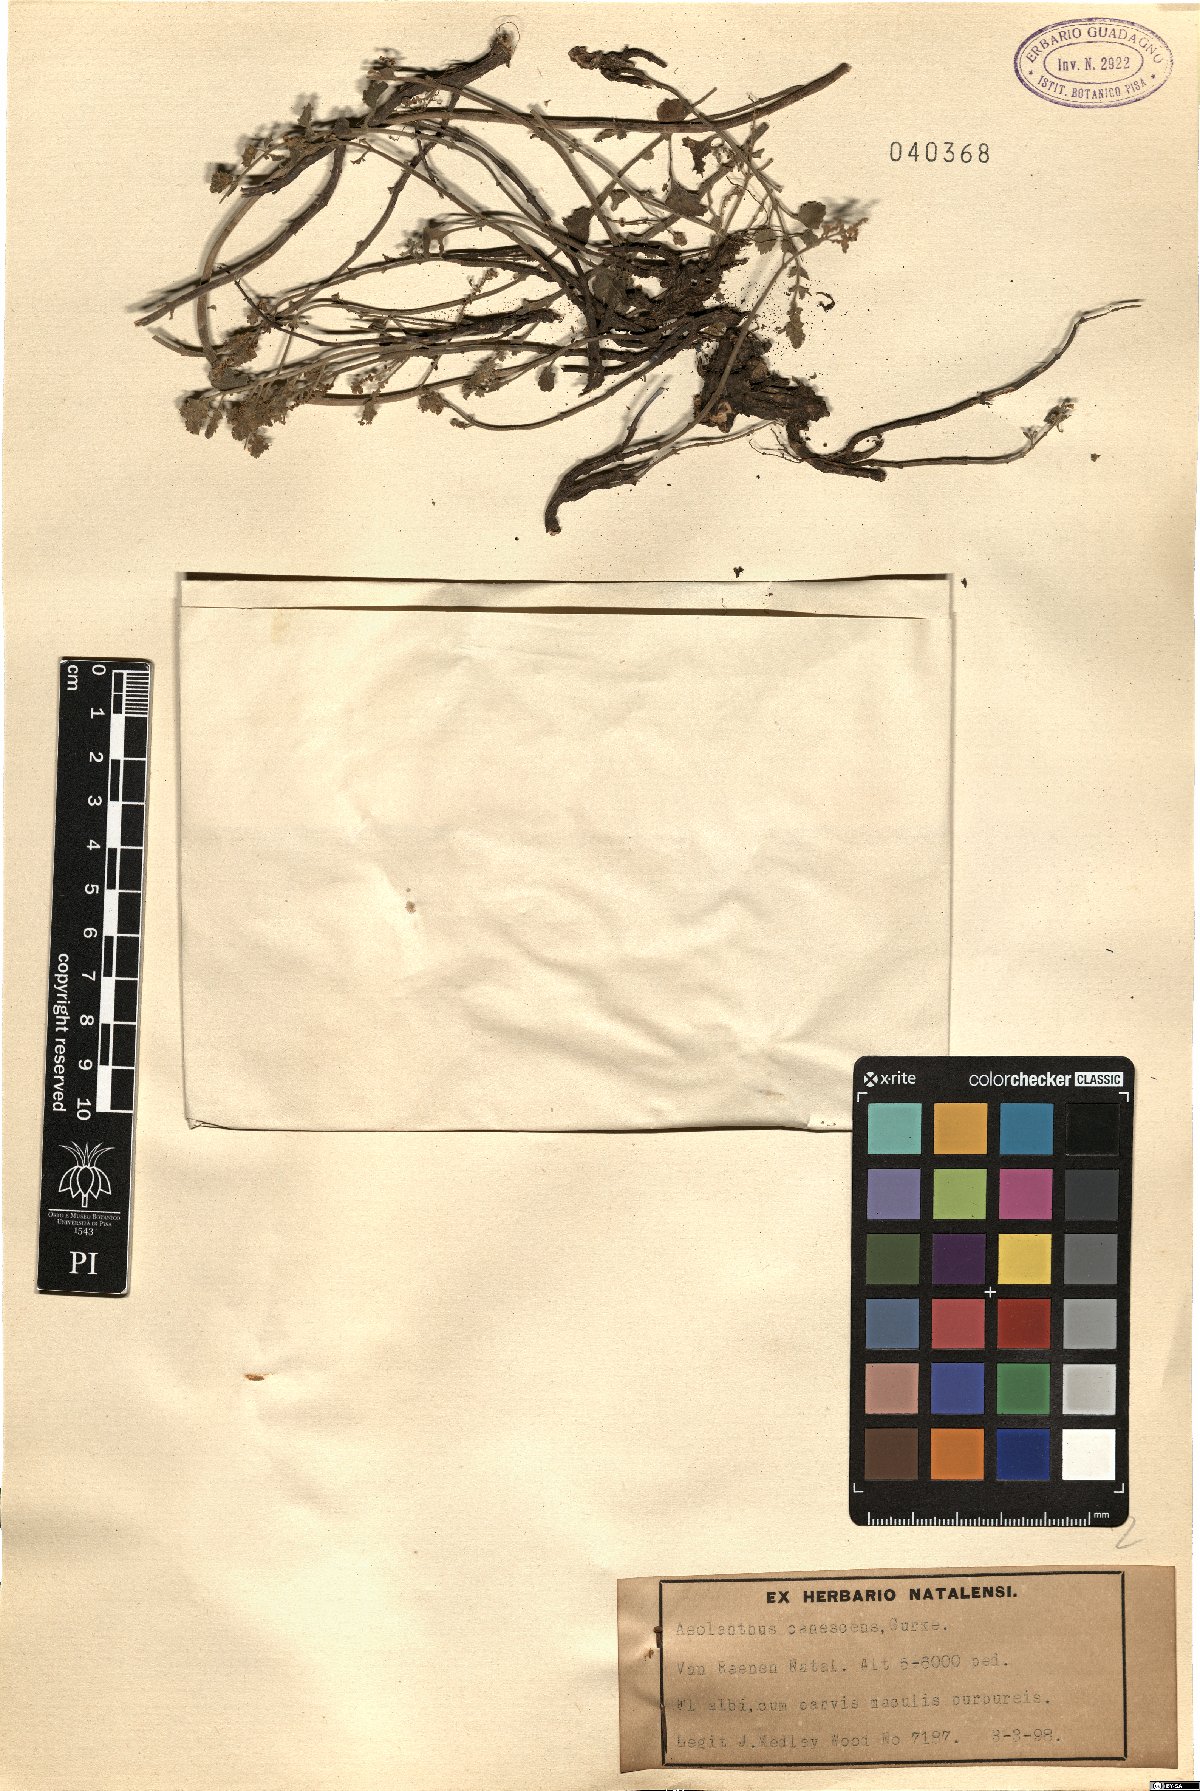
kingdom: Plantae
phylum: Tracheophyta
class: Magnoliopsida
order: Lamiales
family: Lamiaceae
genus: Aeollanthus
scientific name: Aeollanthus buchnerianus
